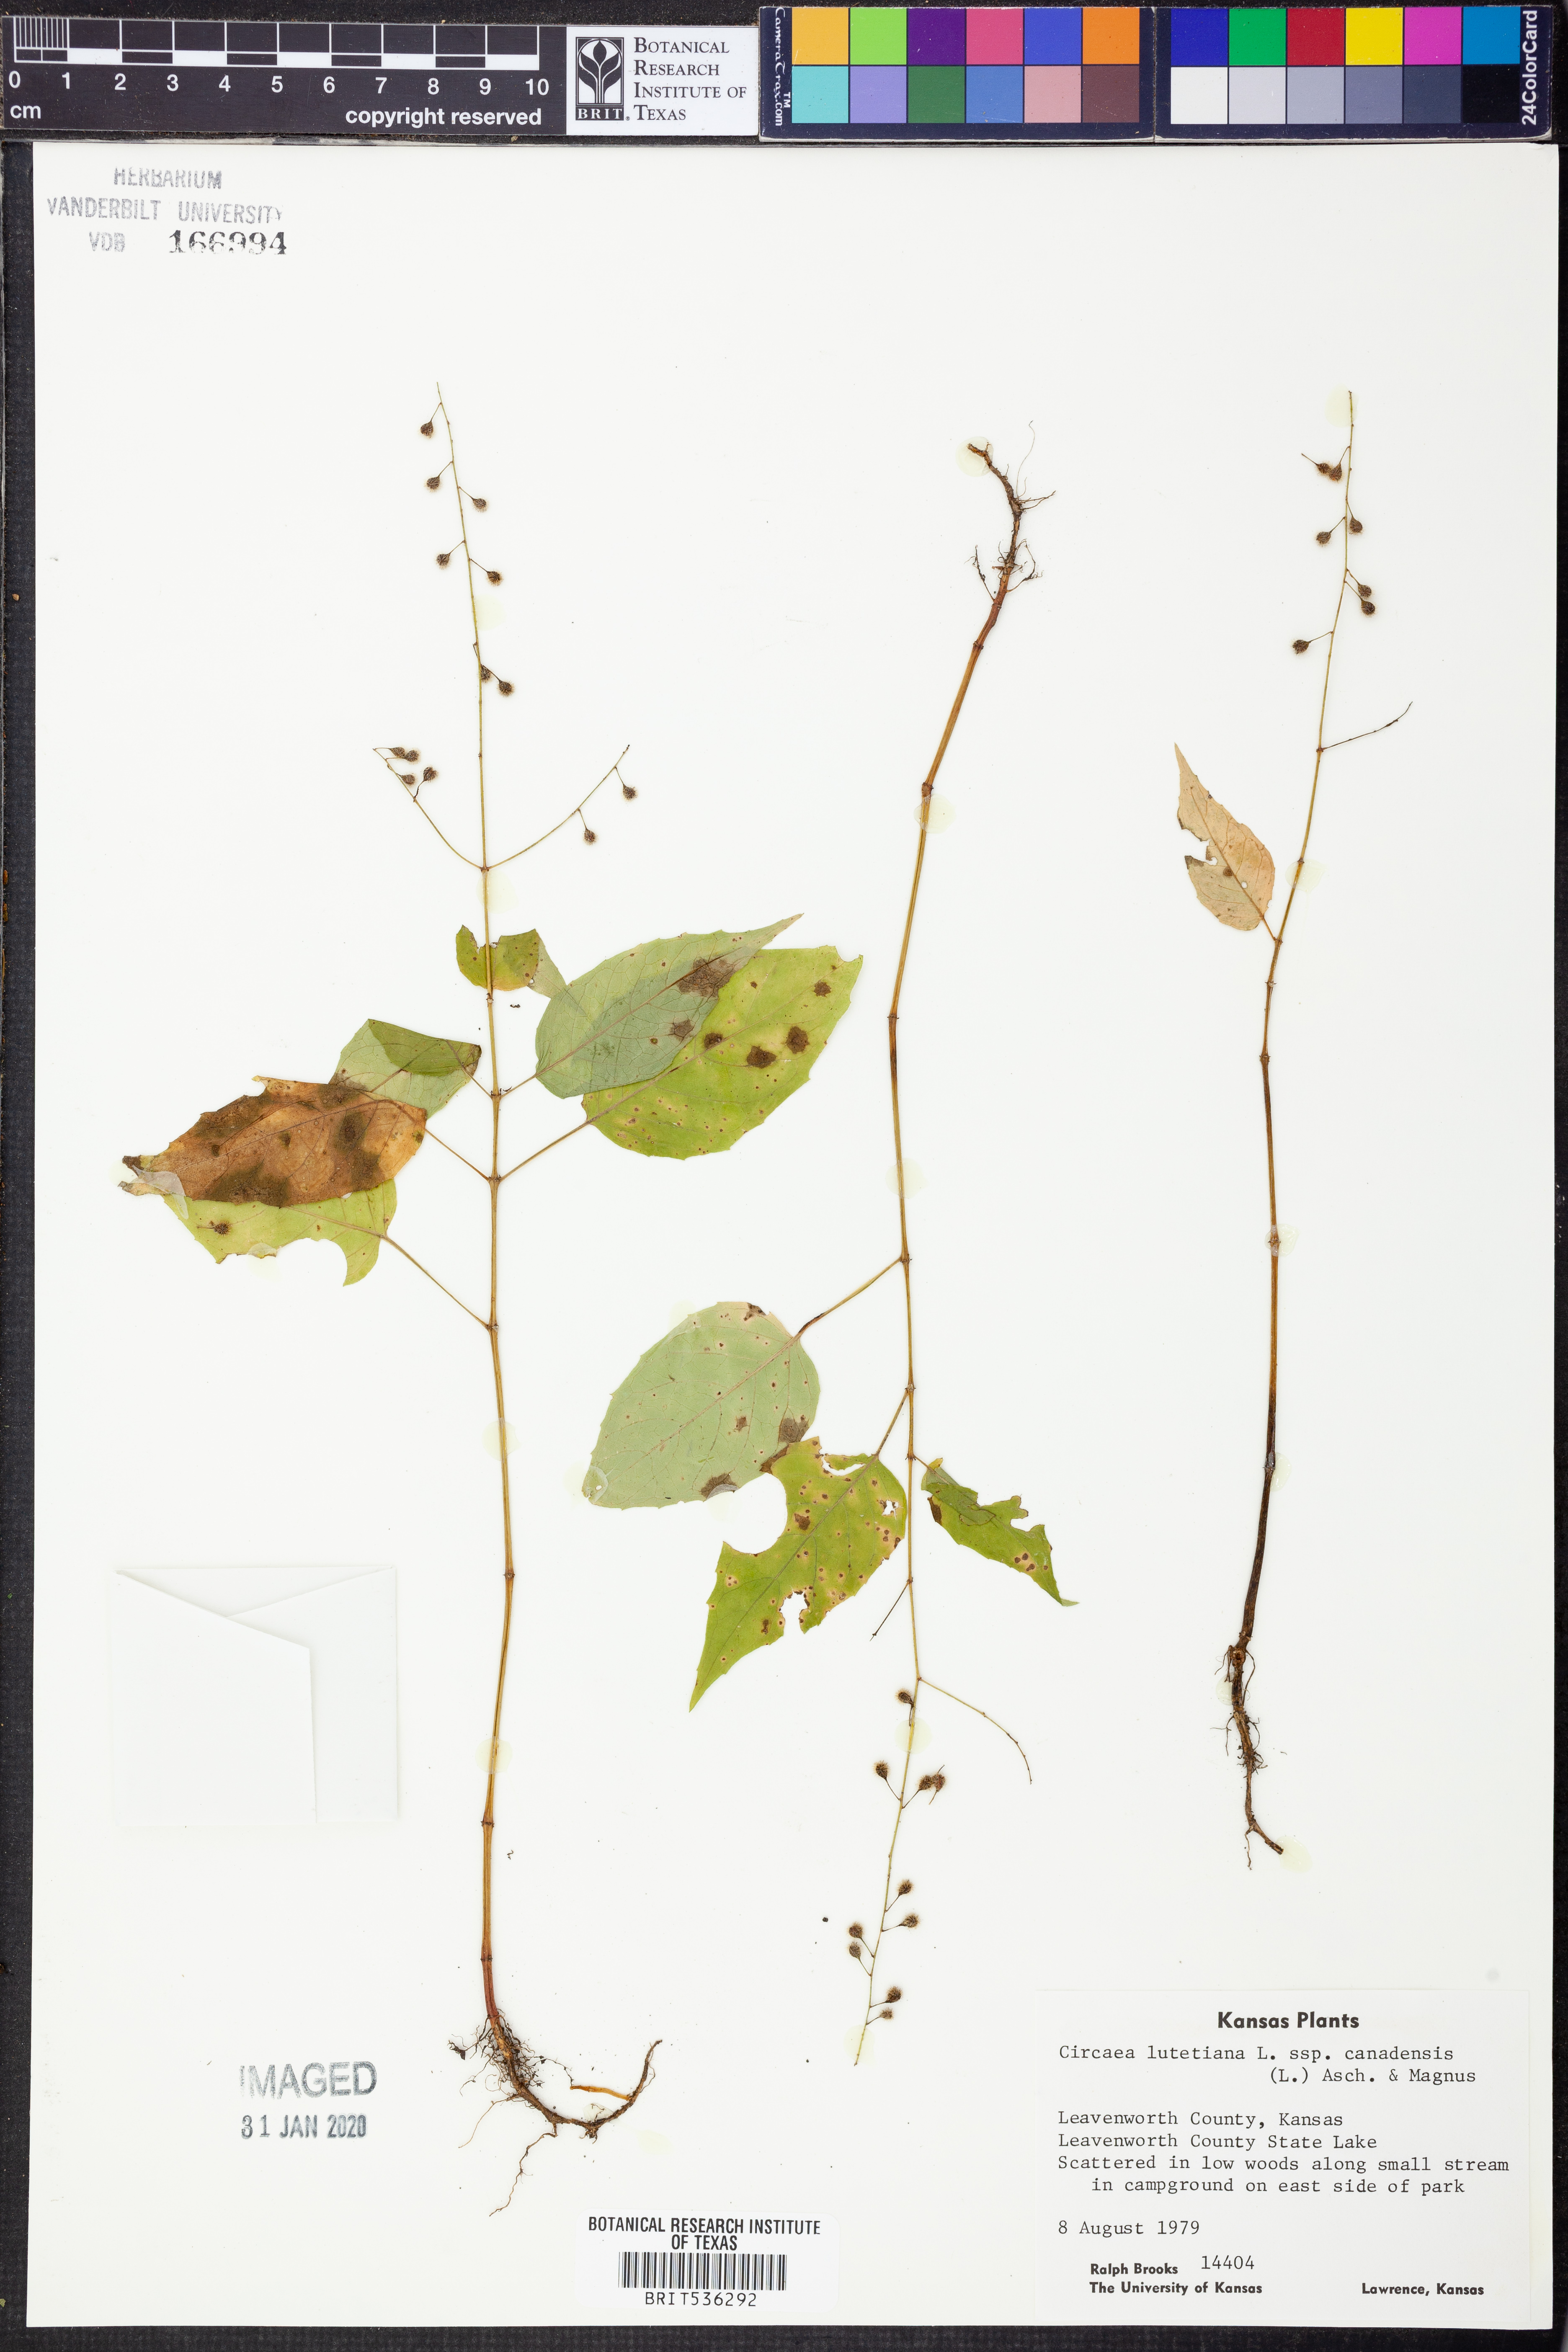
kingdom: Plantae
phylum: Tracheophyta
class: Magnoliopsida
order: Myrtales
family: Onagraceae
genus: Circaea
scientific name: Circaea canadensis
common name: Broad-leaved enchanter's nightshade
